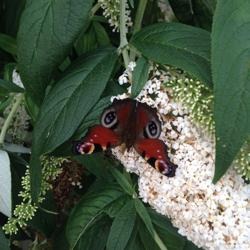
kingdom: Animalia
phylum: Arthropoda
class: Insecta
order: Lepidoptera
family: Nymphalidae
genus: Aglais
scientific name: Aglais io
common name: Dagpåfugleøje
